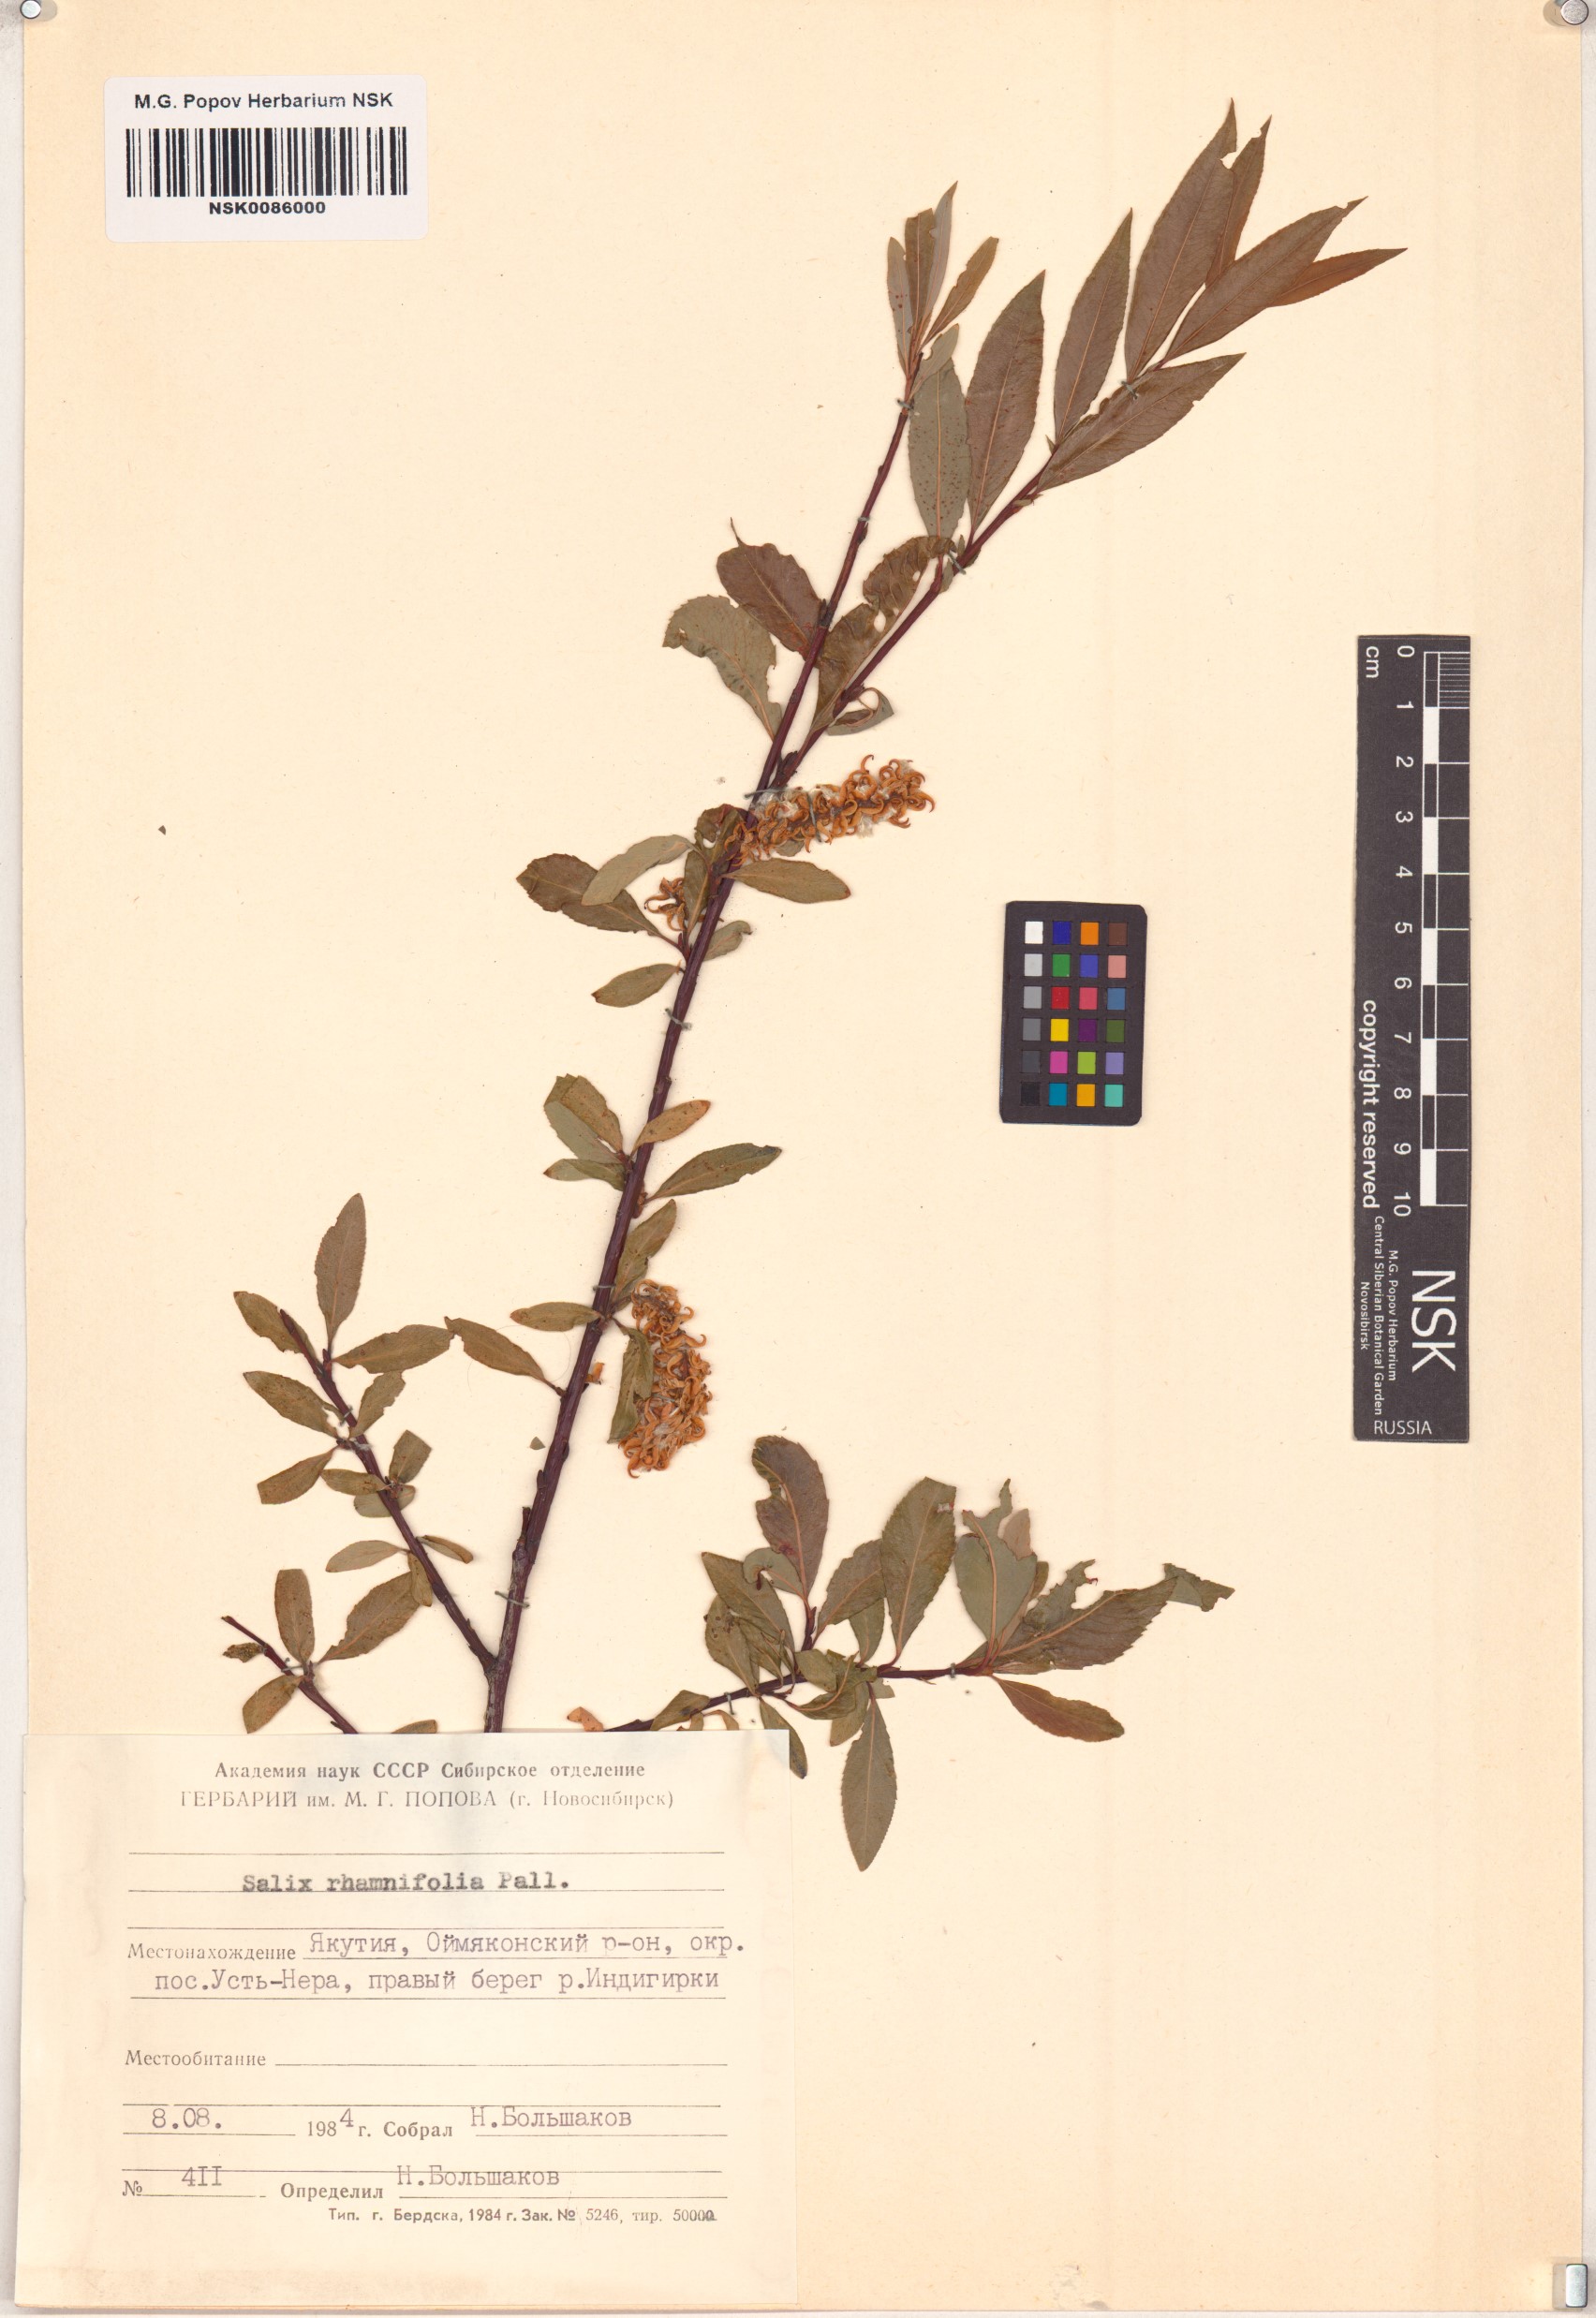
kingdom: Plantae
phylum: Tracheophyta
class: Magnoliopsida
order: Malpighiales
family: Salicaceae
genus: Salix
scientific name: Salix rhamnifolia
